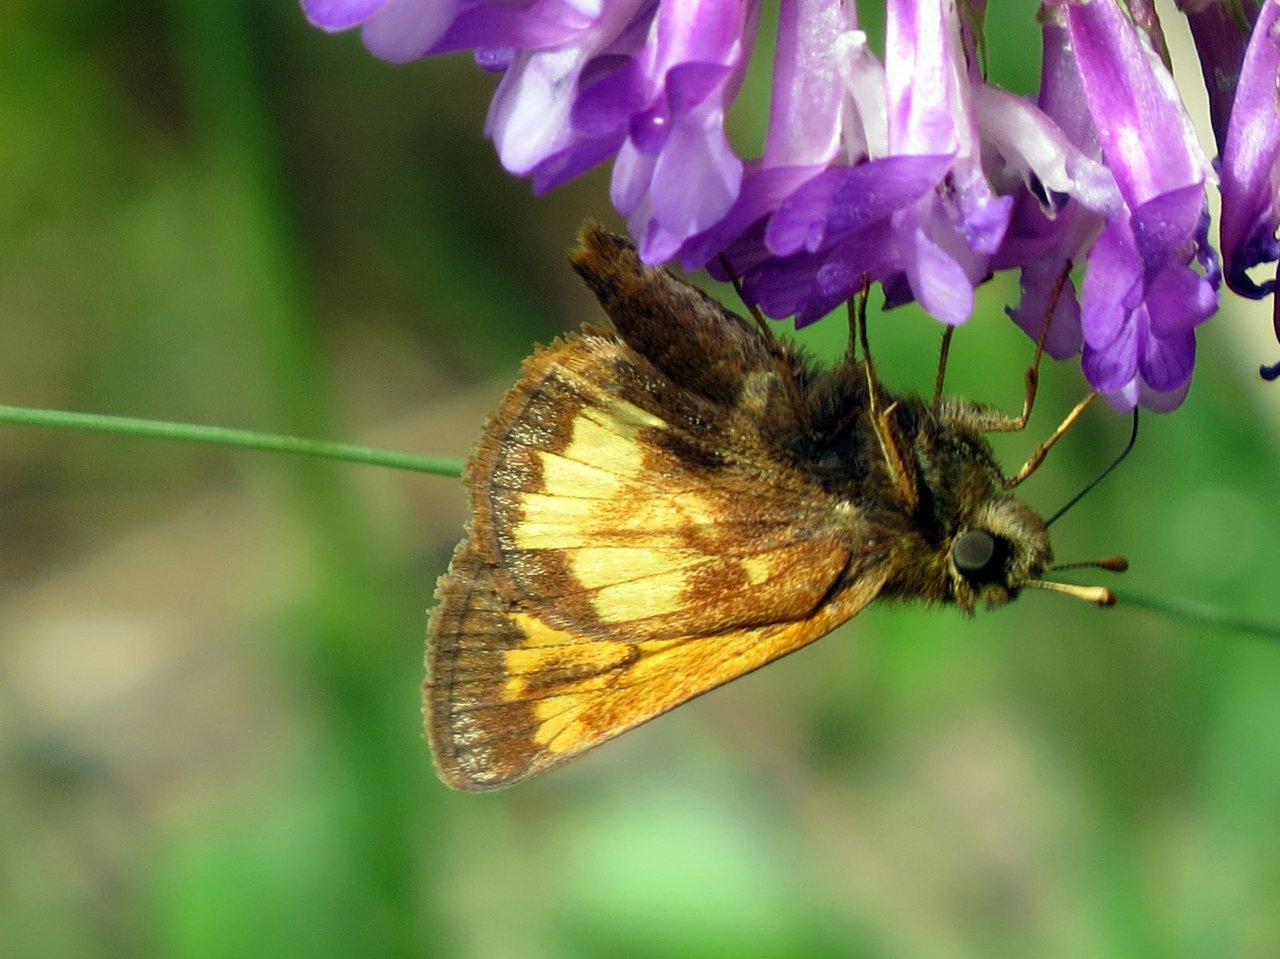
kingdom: Animalia
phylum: Arthropoda
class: Insecta
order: Lepidoptera
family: Hesperiidae
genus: Lon
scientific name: Lon hobomok
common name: Hobomok Skipper
